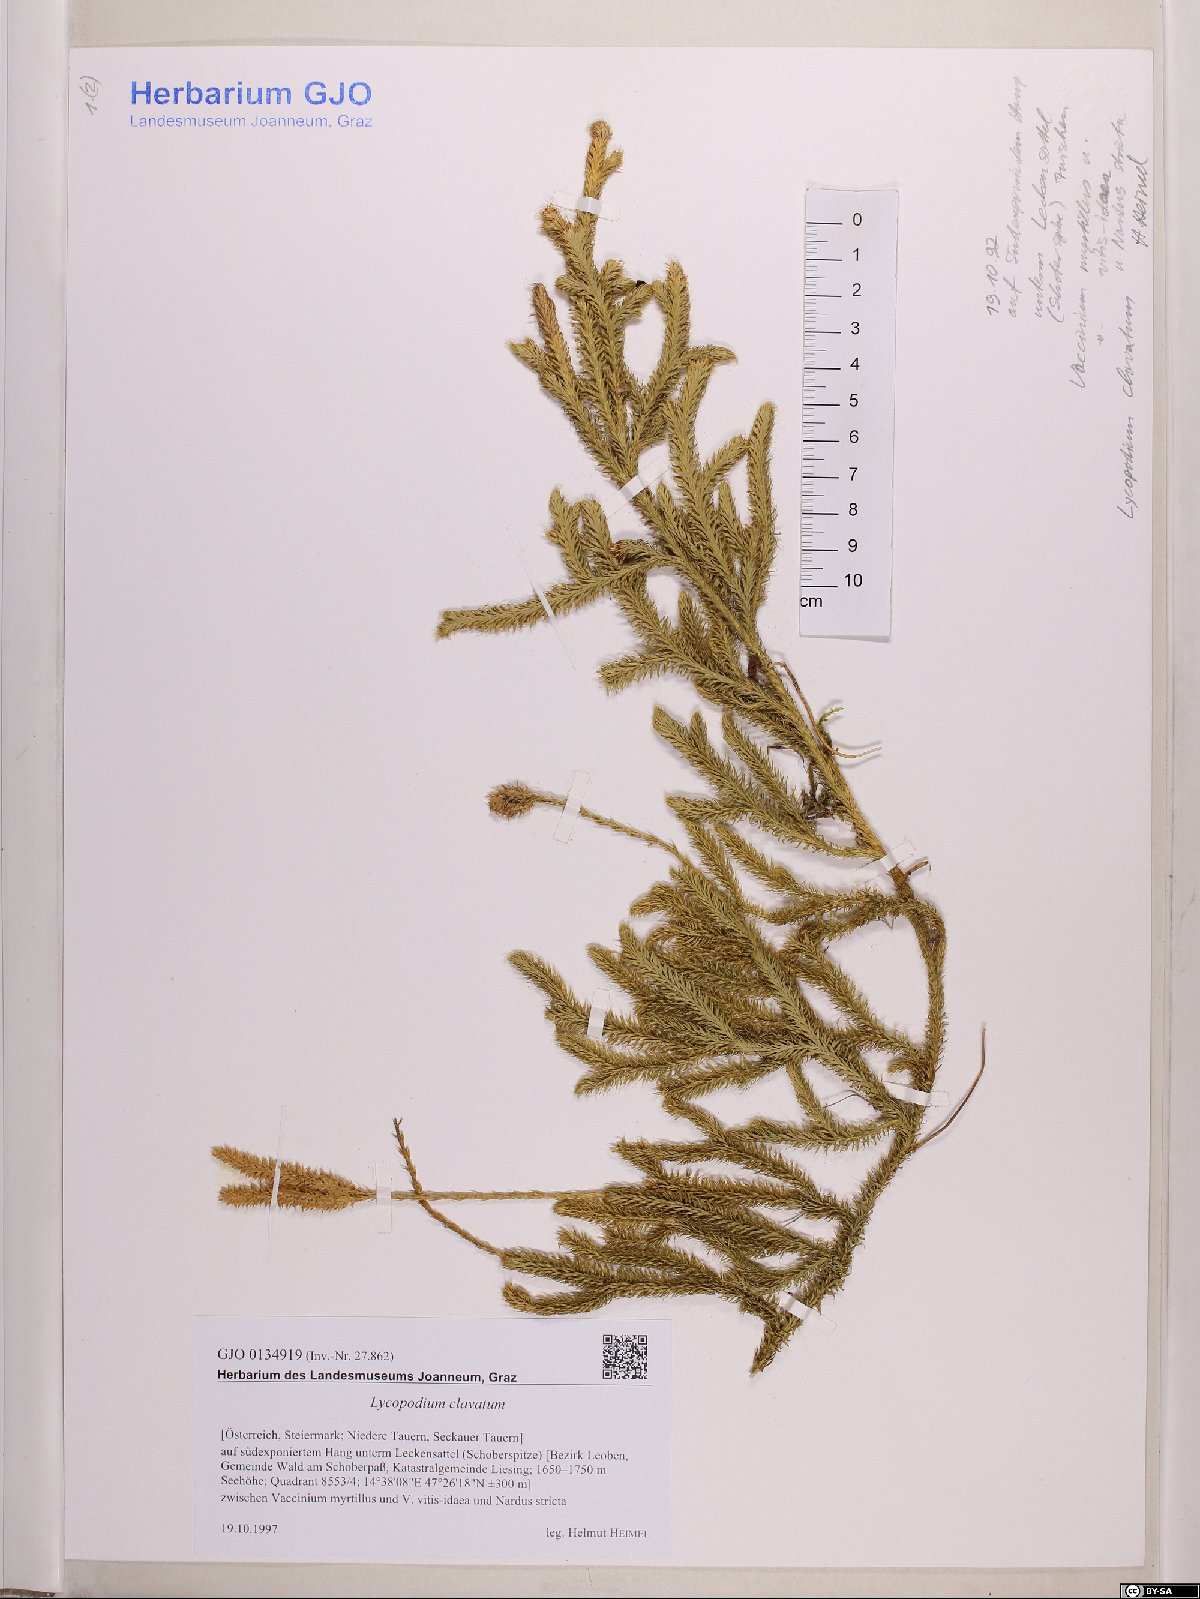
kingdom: Plantae
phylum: Tracheophyta
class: Lycopodiopsida
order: Lycopodiales
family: Lycopodiaceae
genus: Lycopodium
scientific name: Lycopodium clavatum
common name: Stag's-horn clubmoss
